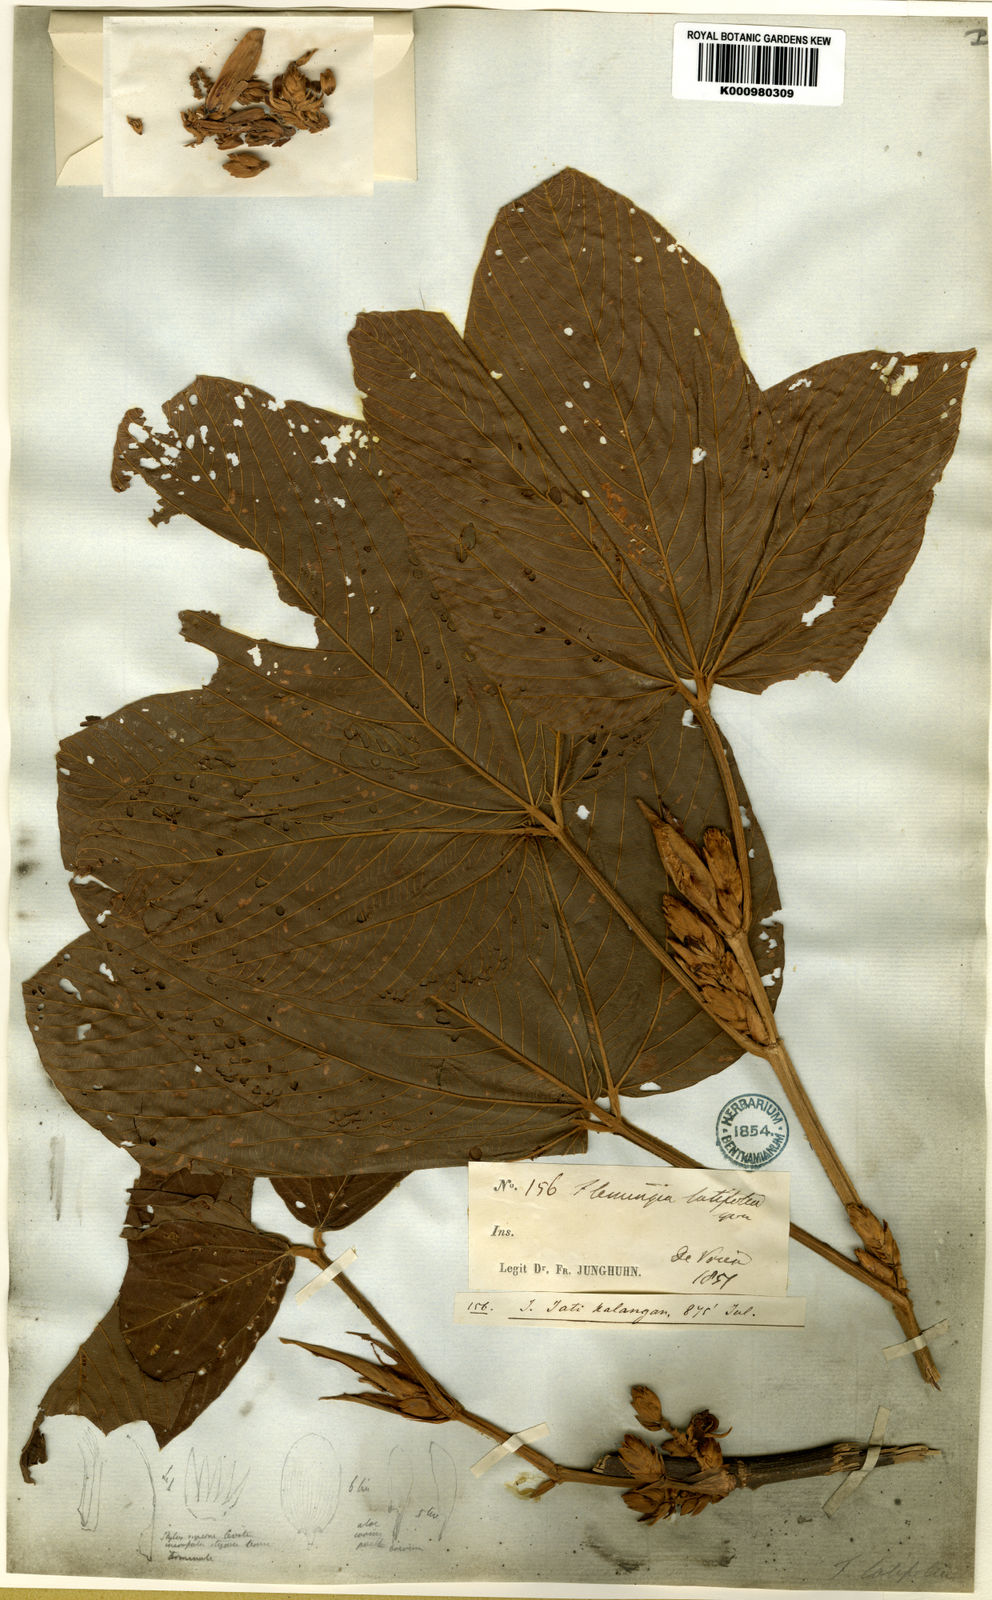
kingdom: Plantae
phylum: Tracheophyta
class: Magnoliopsida
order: Fabales
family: Fabaceae
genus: Flemingia
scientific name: Flemingia macrophylla
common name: Flemingia
